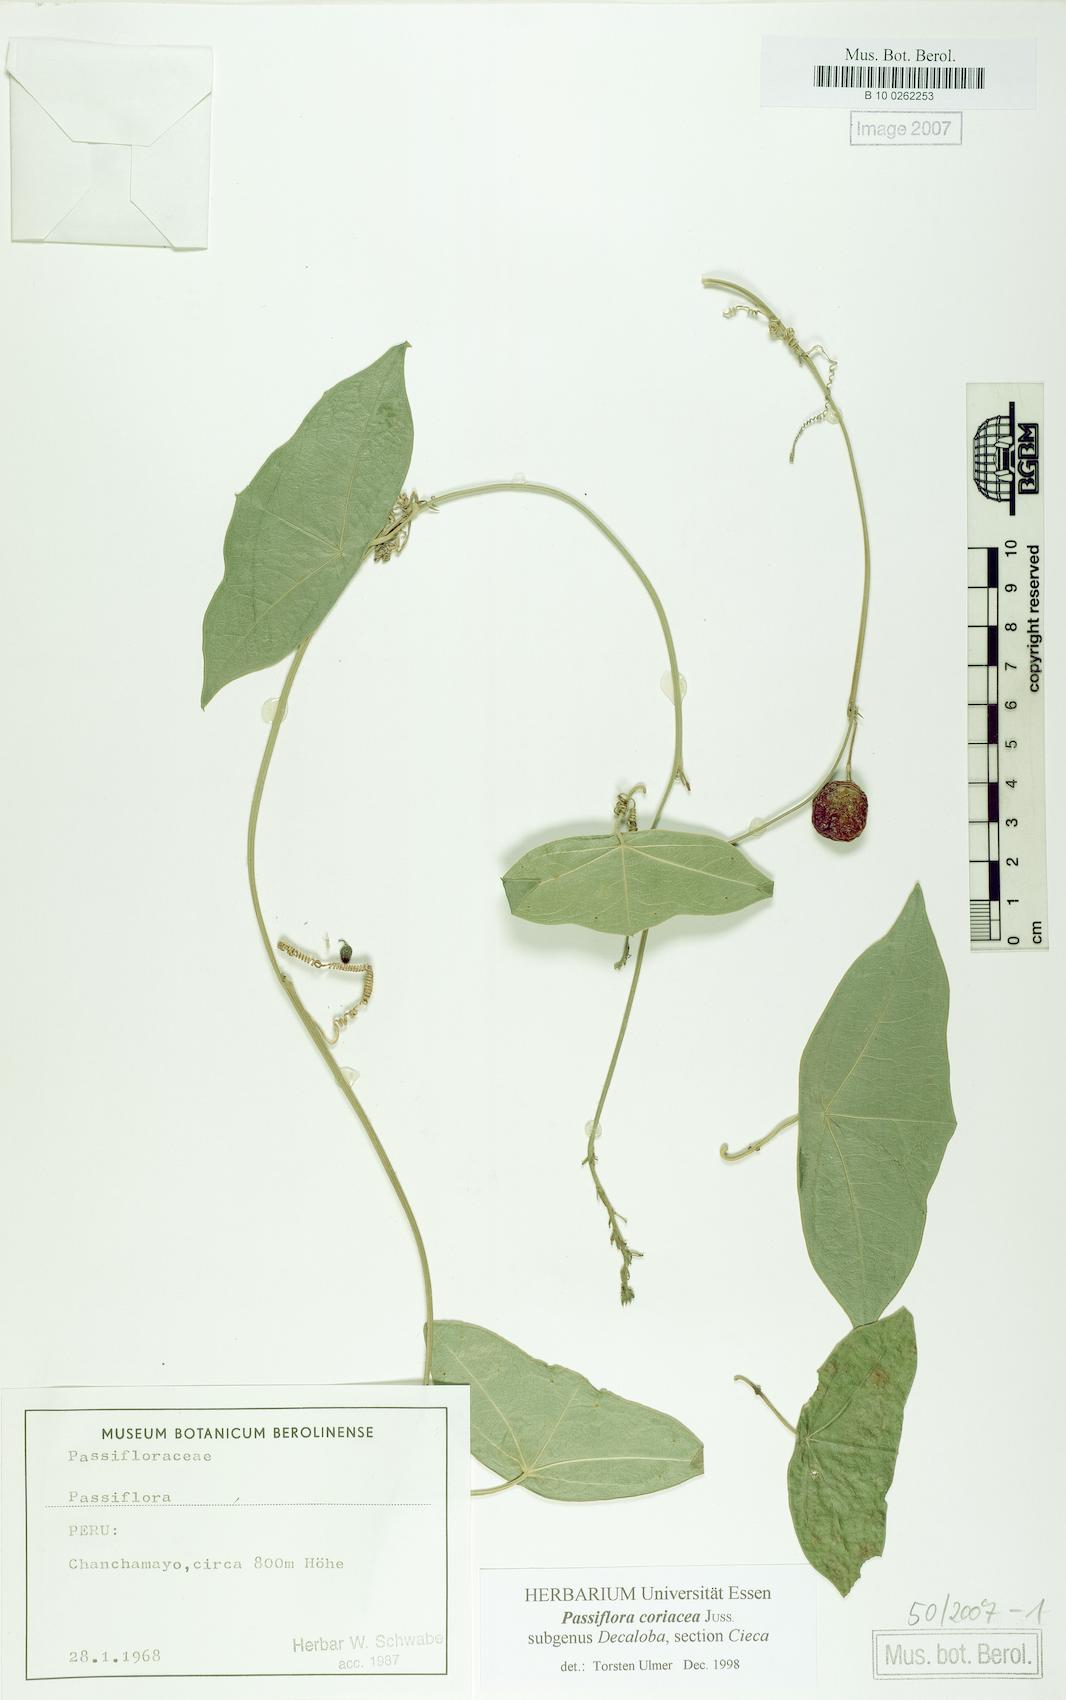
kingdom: Plantae
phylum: Tracheophyta
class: Magnoliopsida
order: Malpighiales
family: Passifloraceae
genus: Passiflora
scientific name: Passiflora
